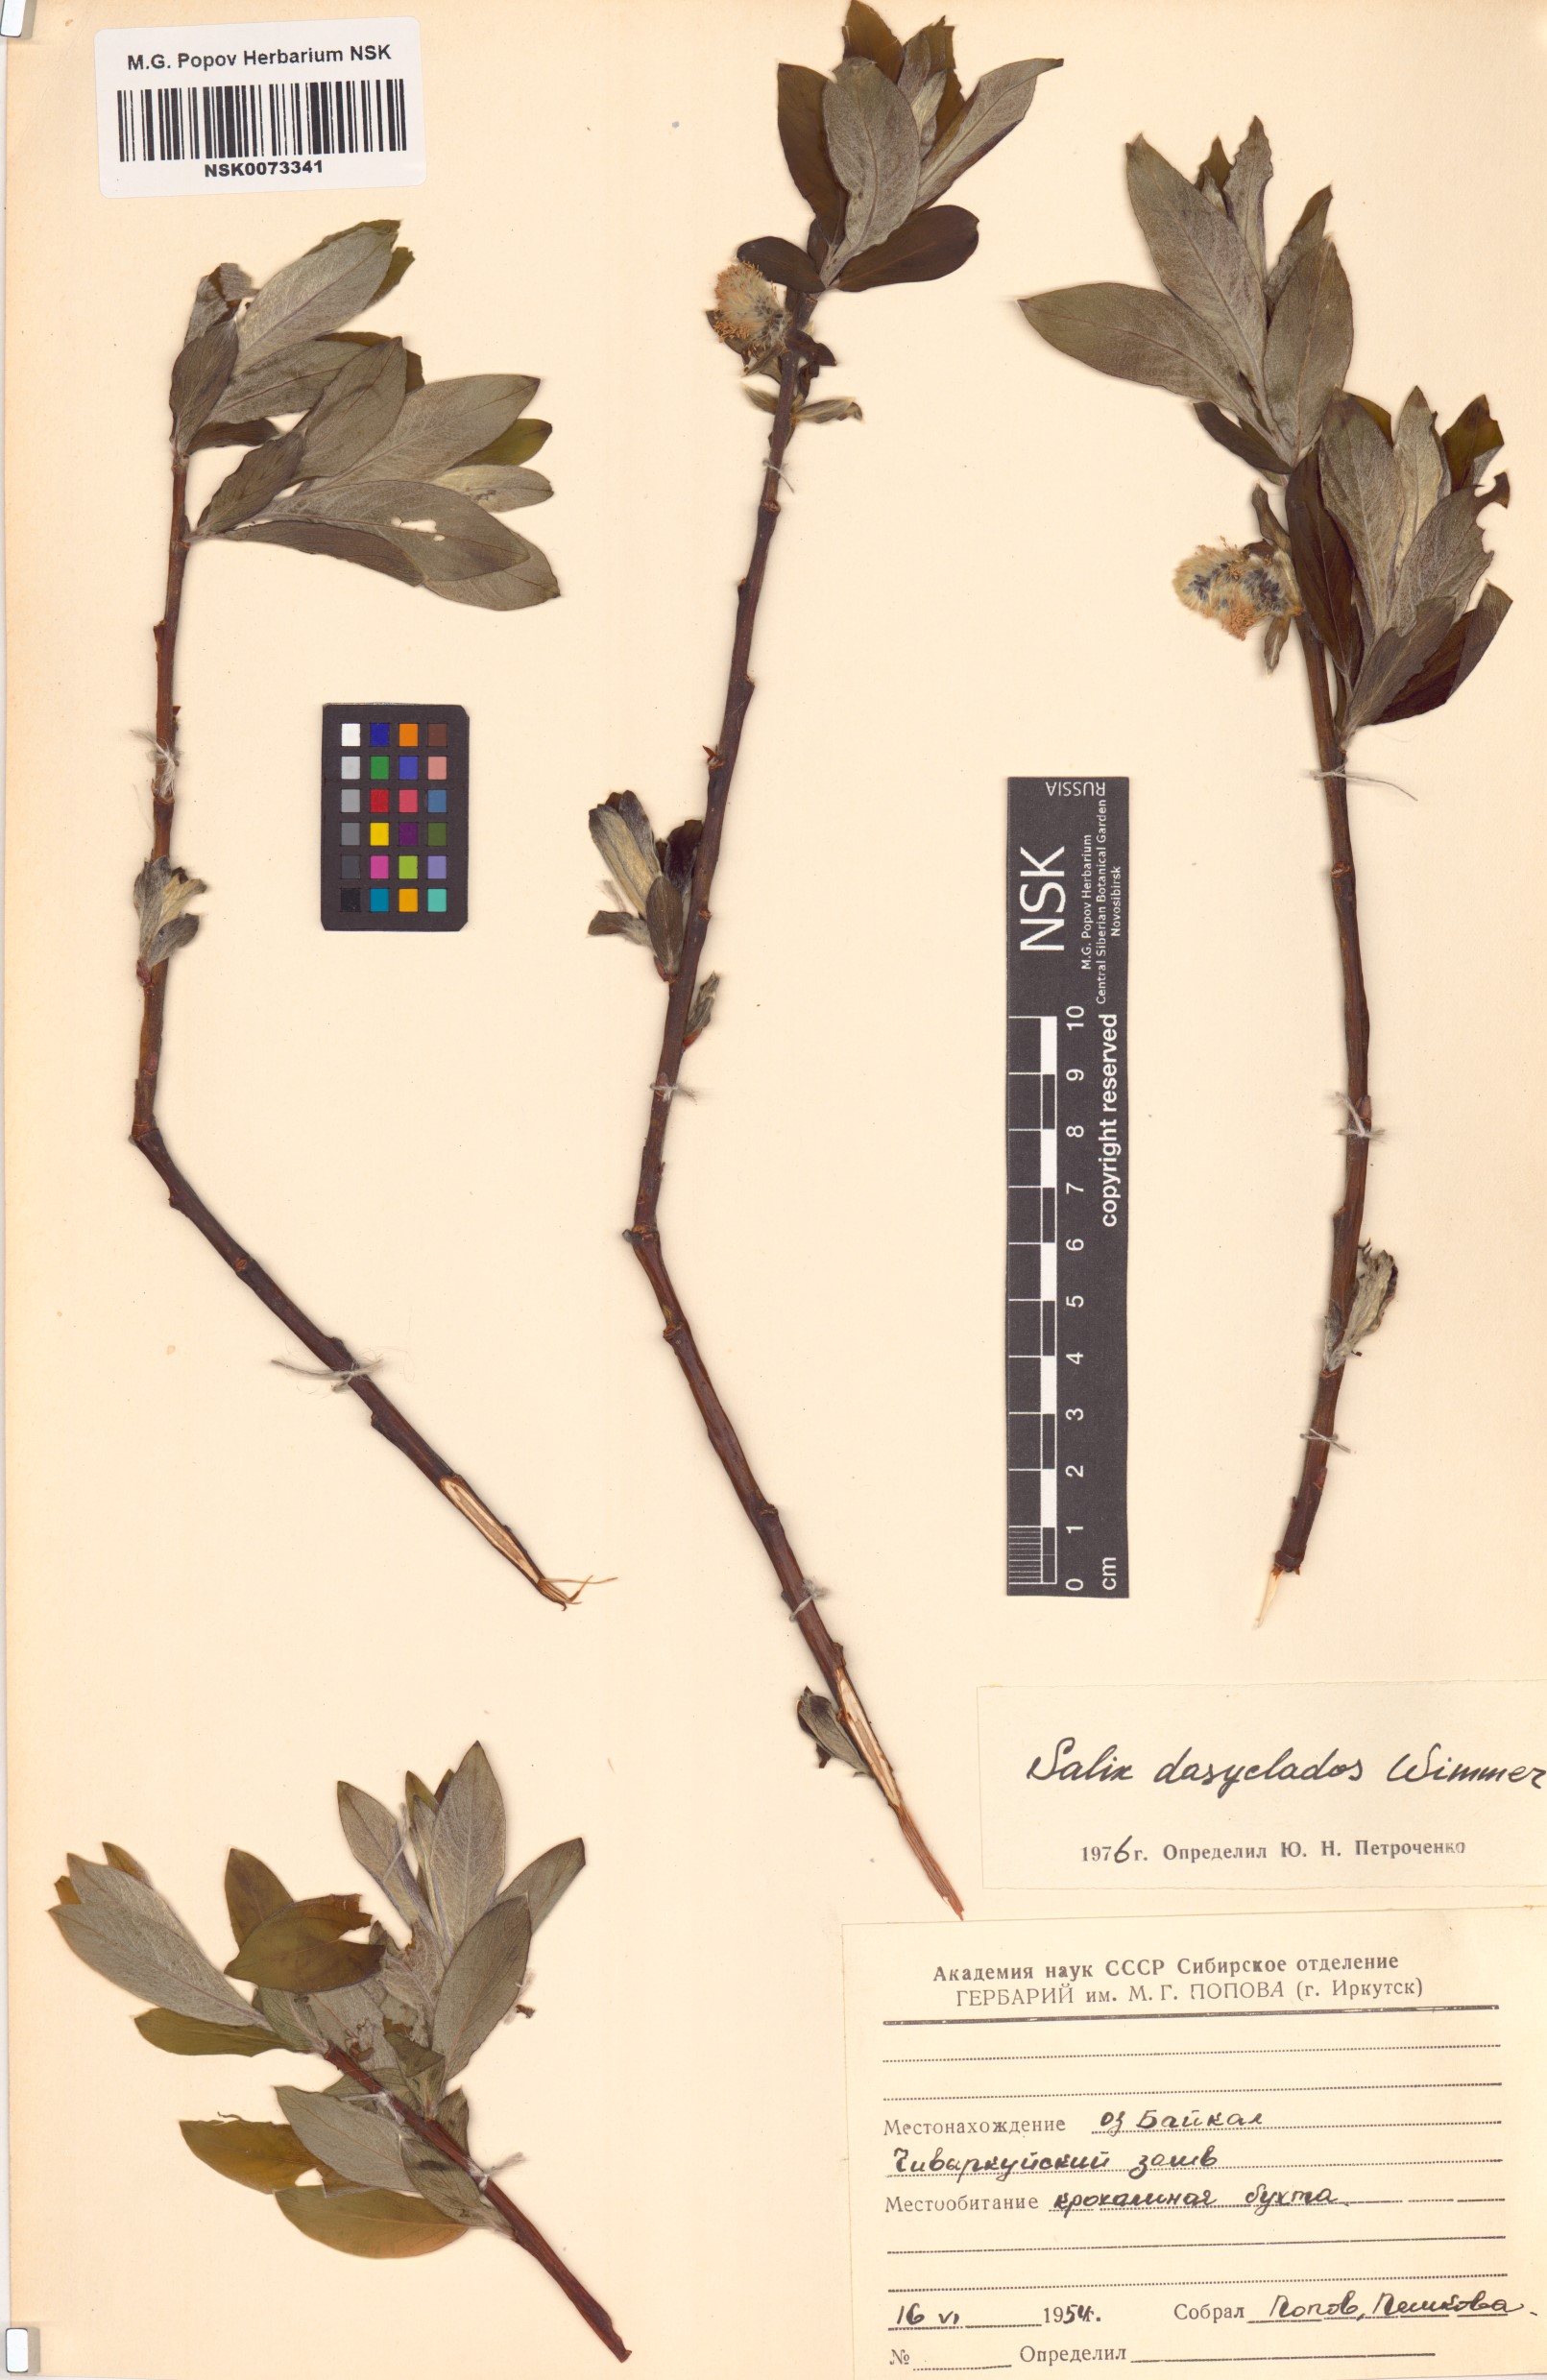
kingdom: Plantae
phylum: Tracheophyta
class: Magnoliopsida
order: Malpighiales
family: Salicaceae
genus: Salix
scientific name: Salix gmelinii
